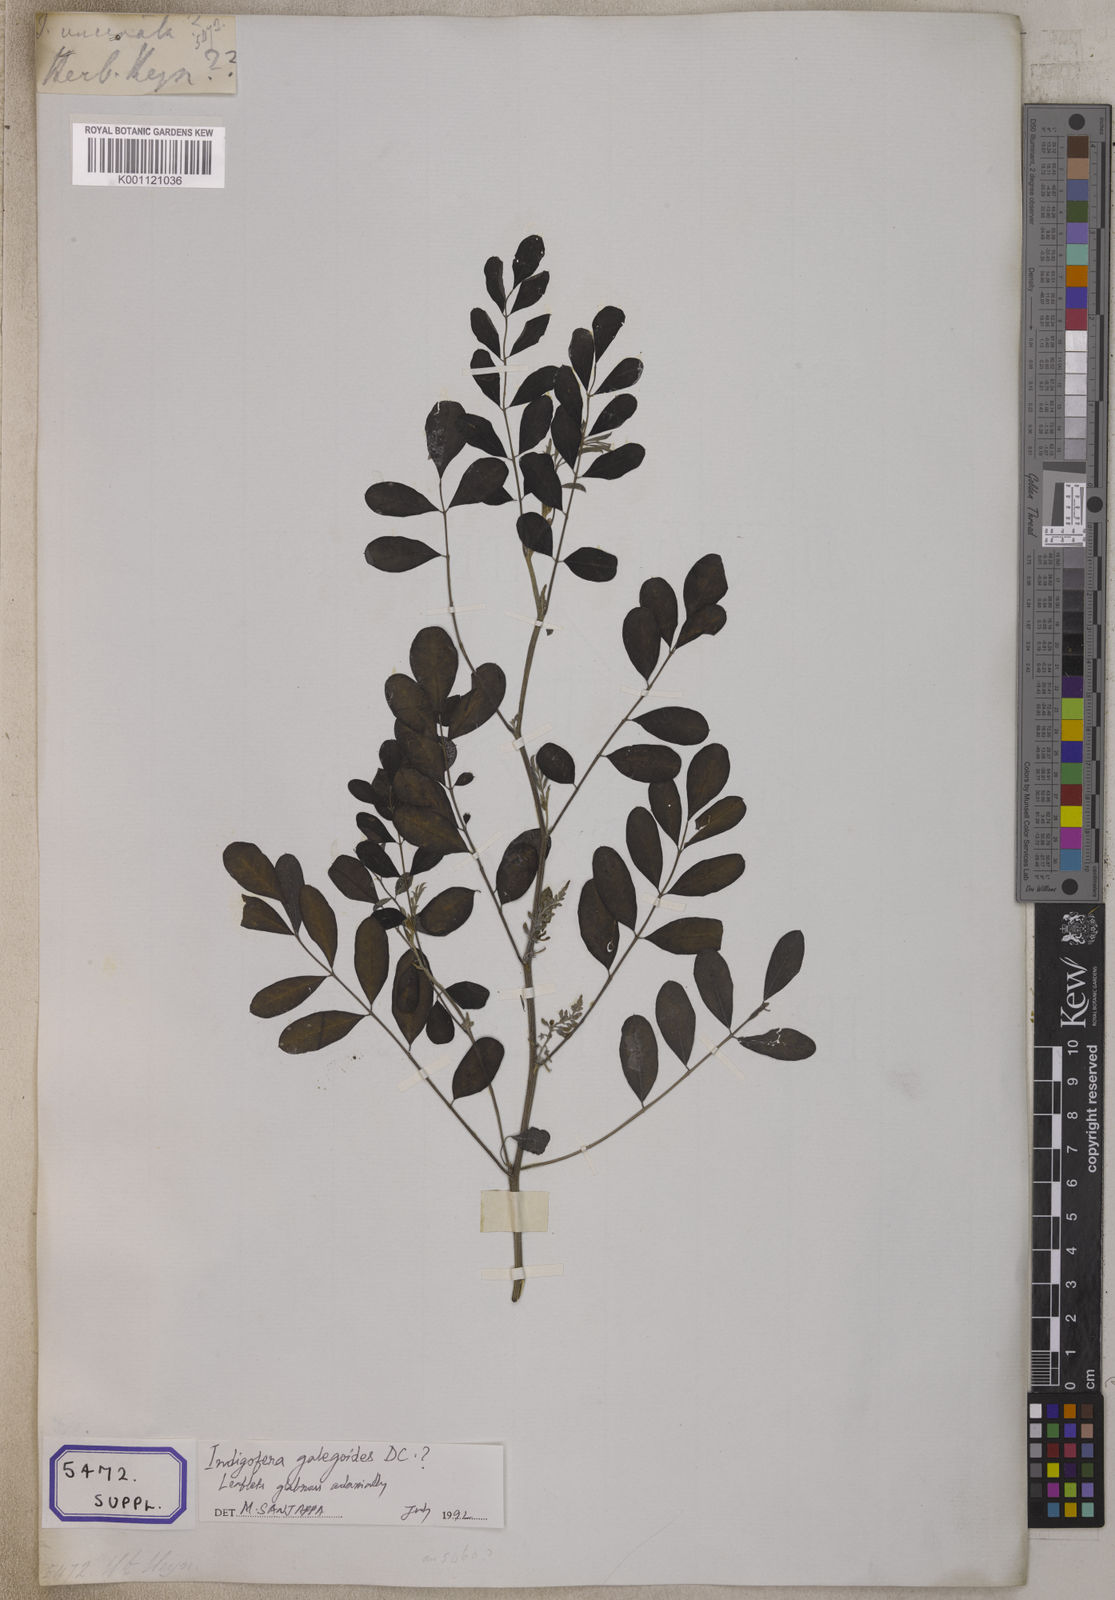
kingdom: Plantae
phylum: Tracheophyta
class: Magnoliopsida
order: Fabales
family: Fabaceae
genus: Indigofera
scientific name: Indigofera galegoides
